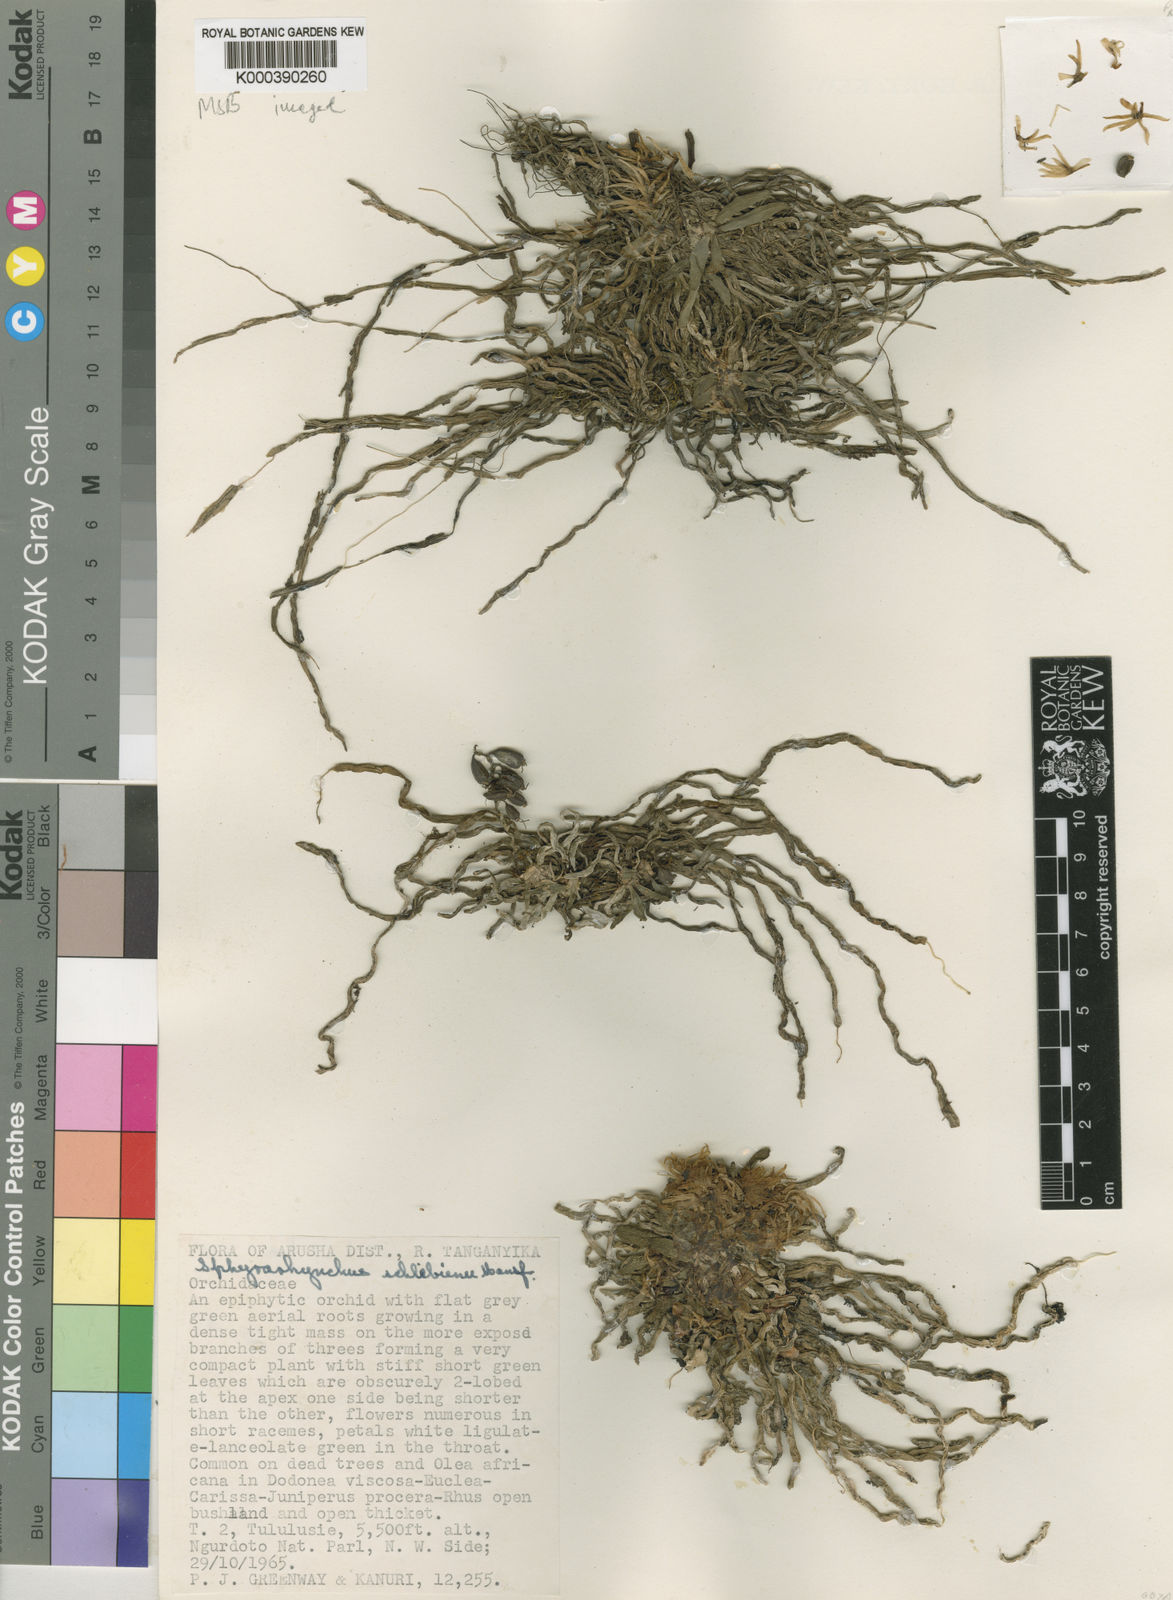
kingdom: Plantae
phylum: Tracheophyta
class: Liliopsida
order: Asparagales
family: Orchidaceae
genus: Sphyrarhynchus
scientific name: Sphyrarhynchus schliebenii
